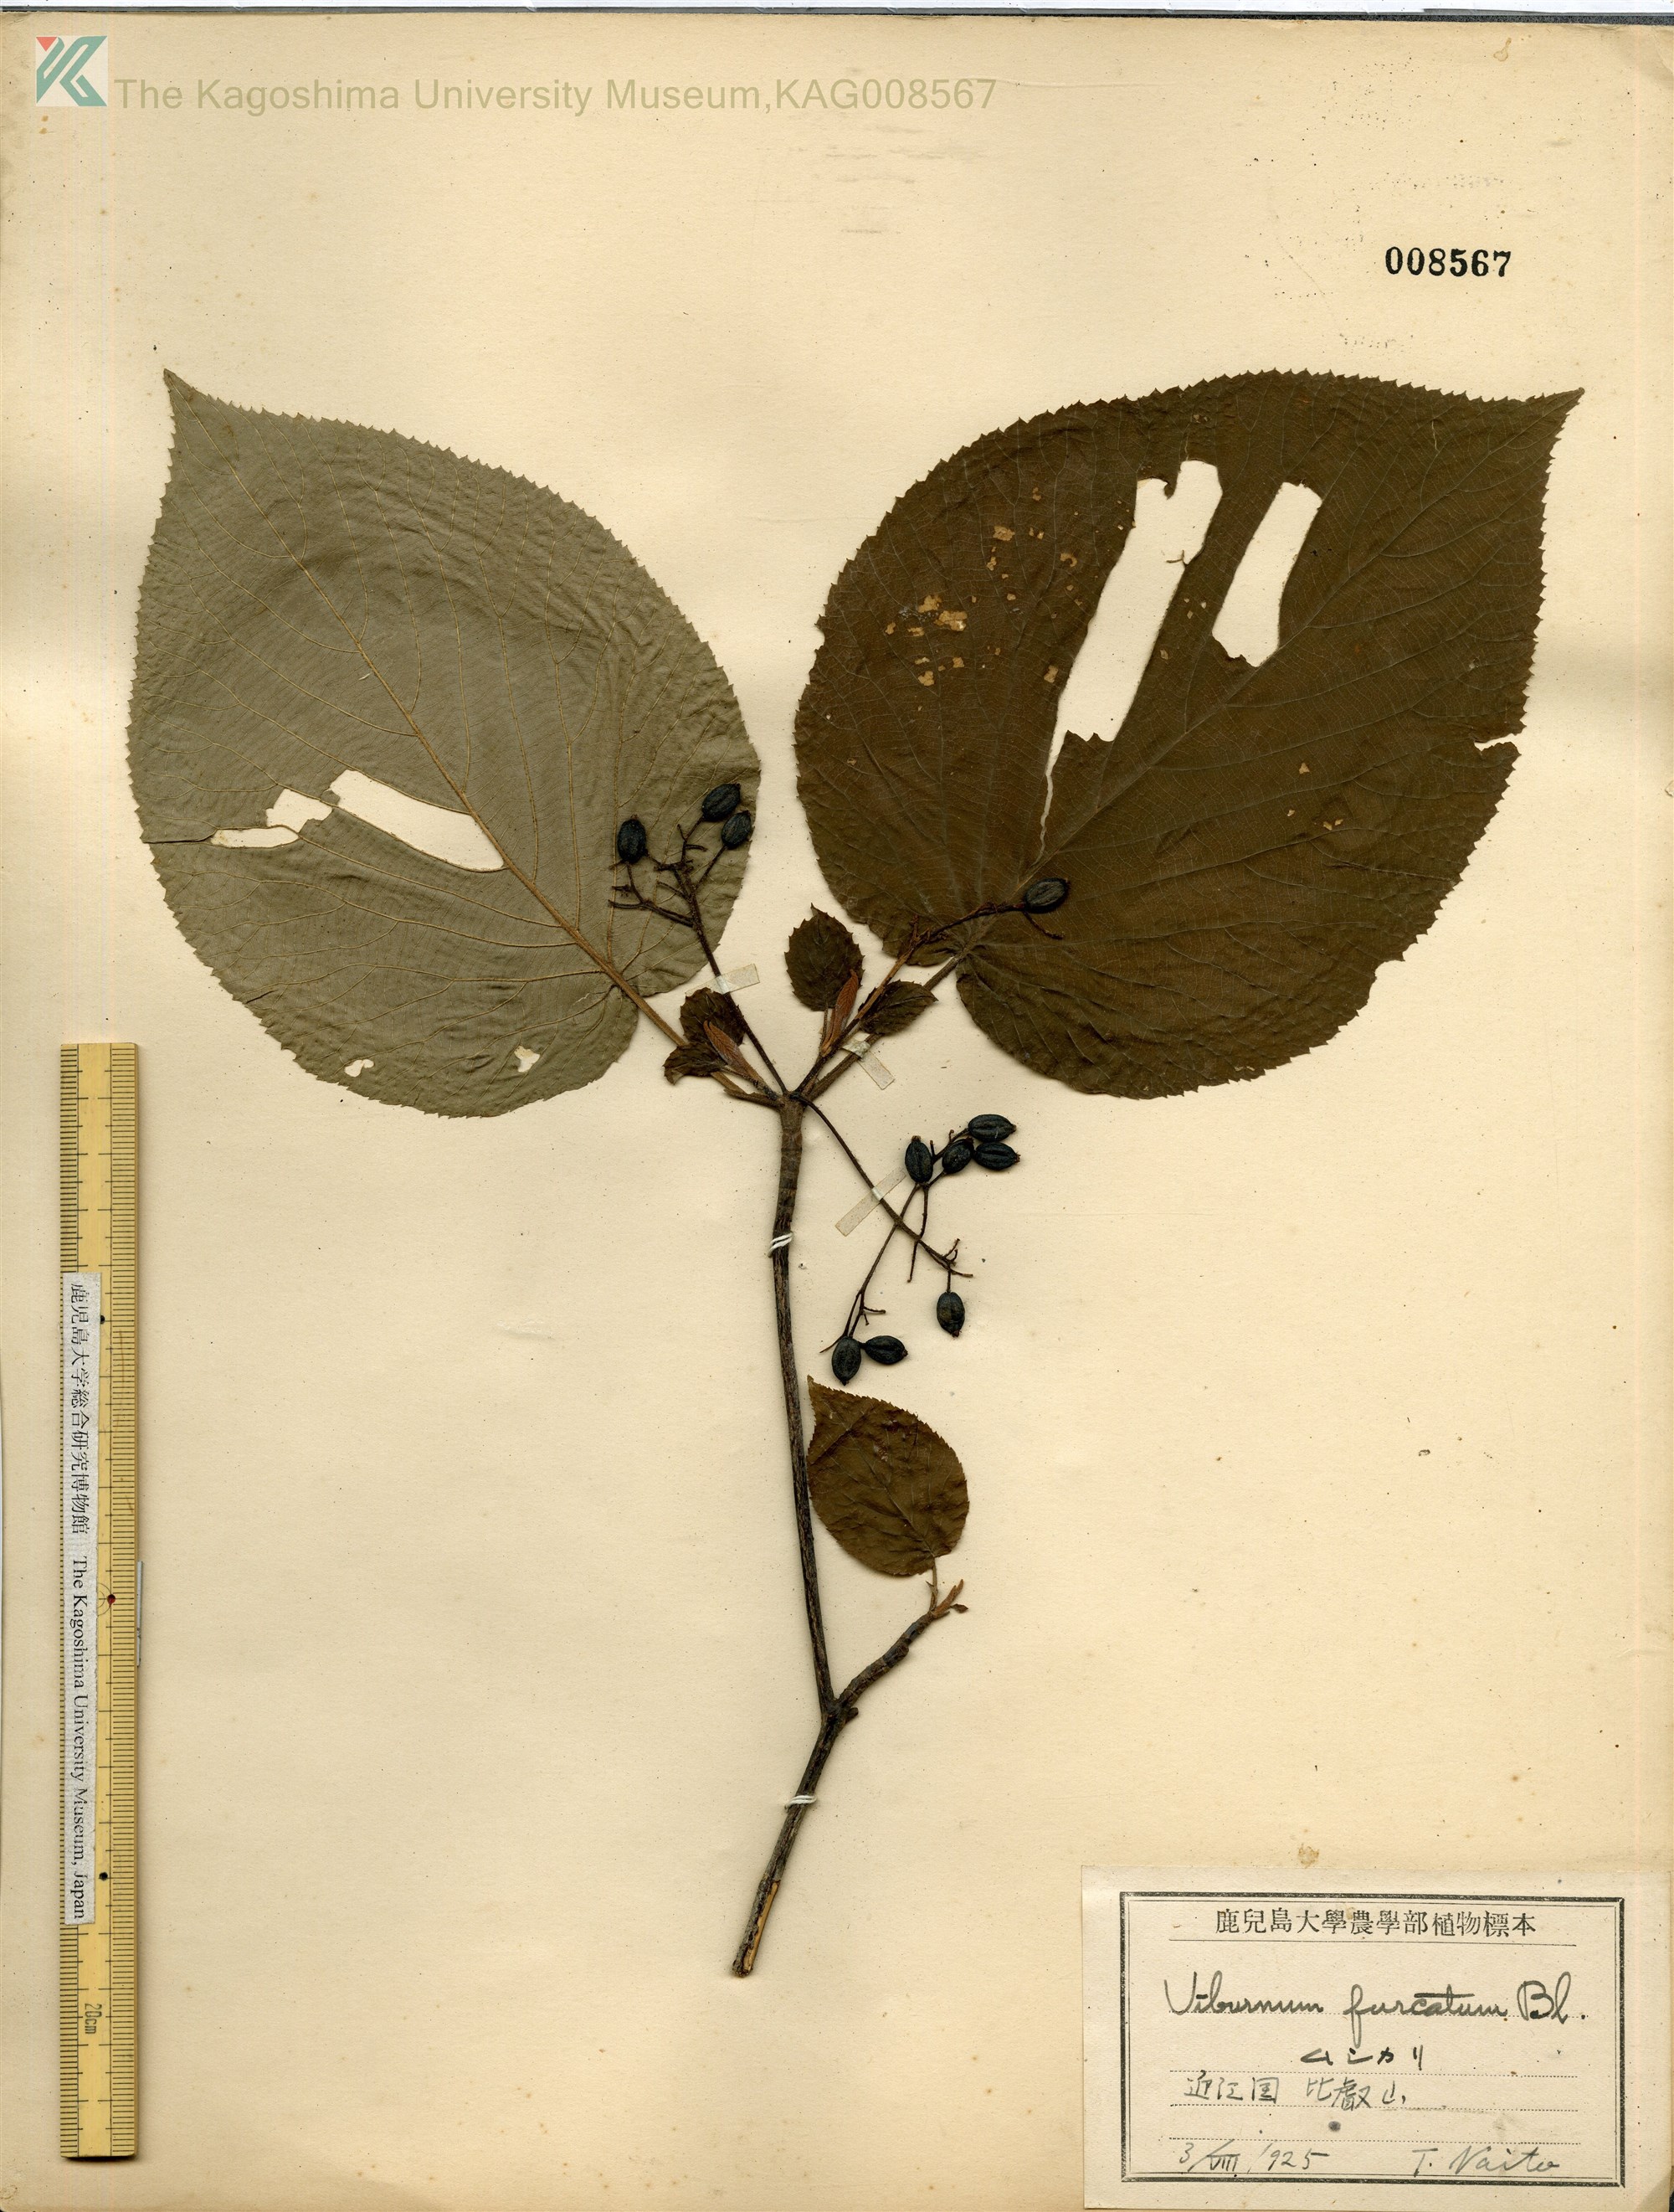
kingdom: Plantae
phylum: Tracheophyta
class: Magnoliopsida
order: Dipsacales
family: Viburnaceae
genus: Viburnum
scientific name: Viburnum furcatum
